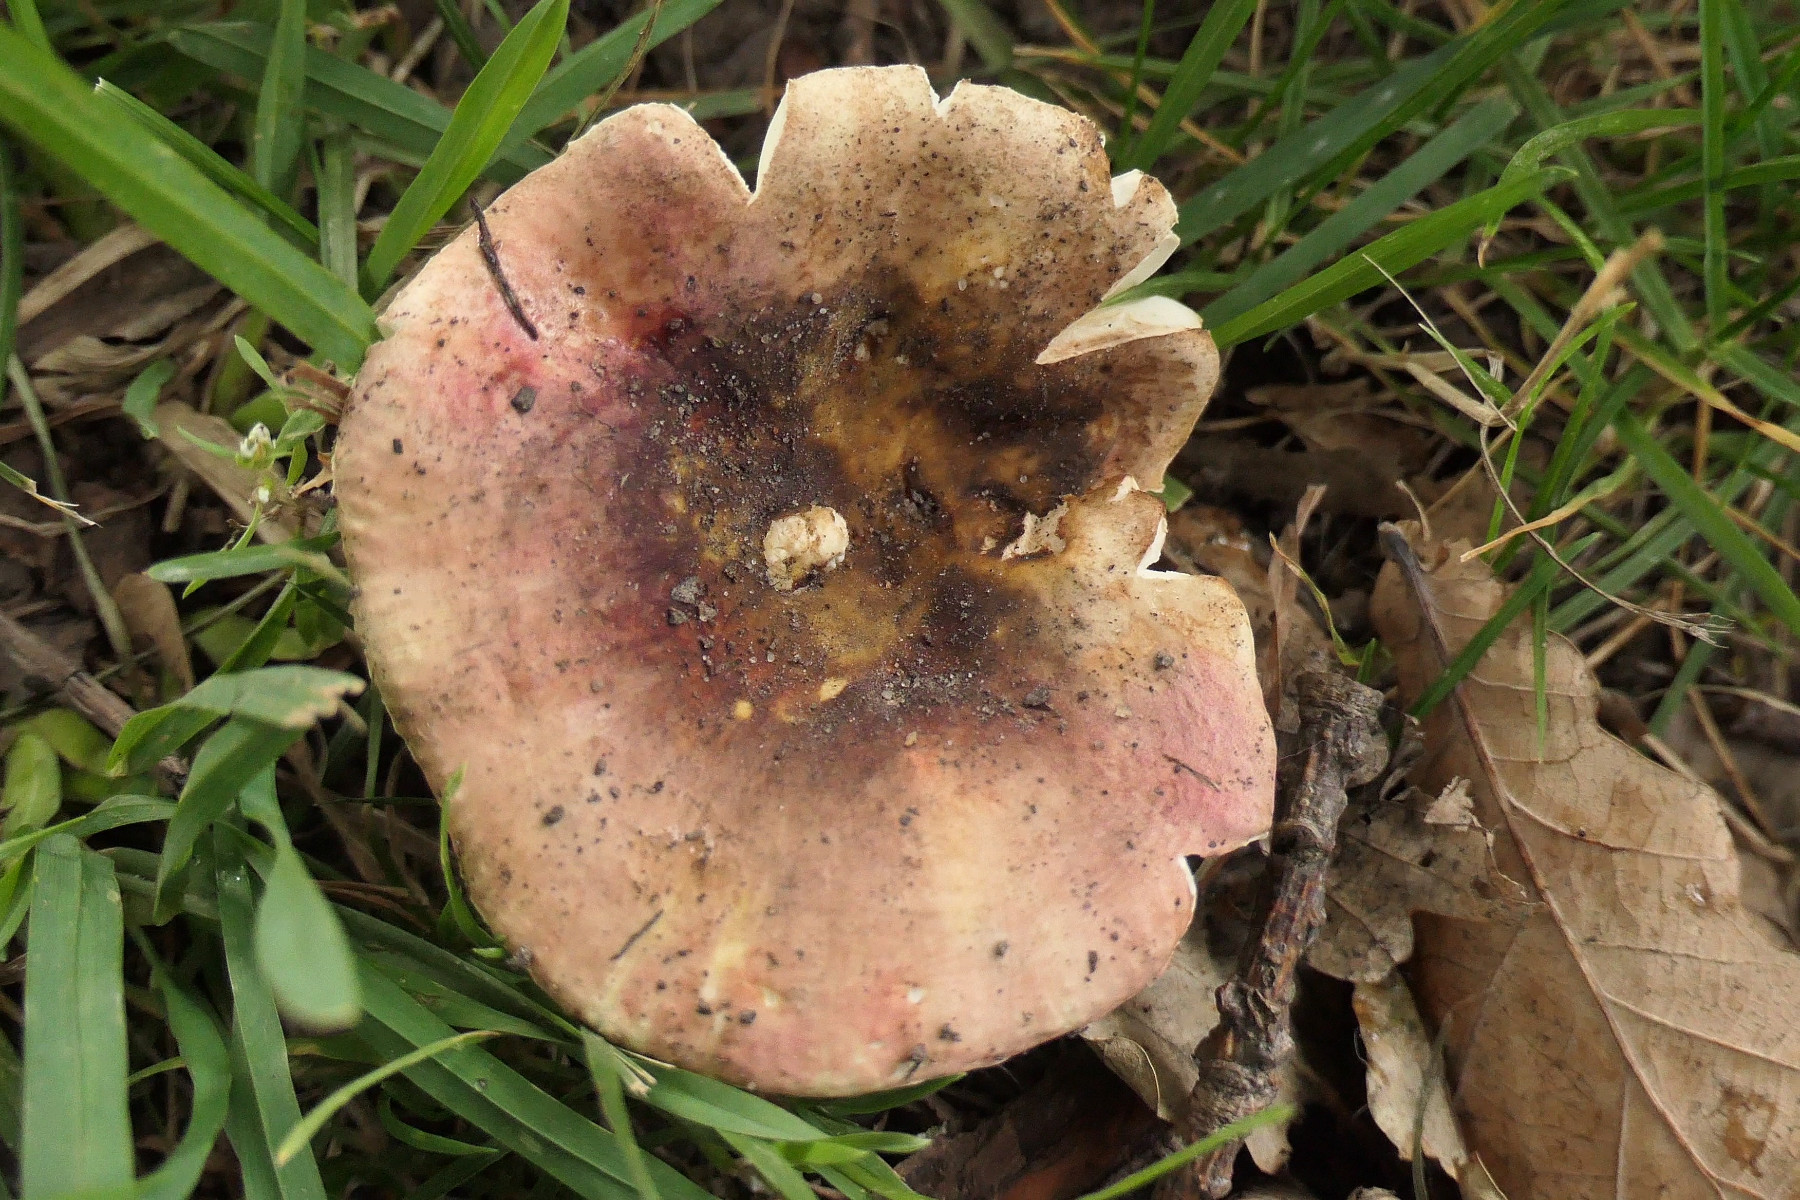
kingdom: Fungi
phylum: Basidiomycota
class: Agaricomycetes
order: Russulales
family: Russulaceae
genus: Russula
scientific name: Russula graveolens
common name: bugtet skørhat
